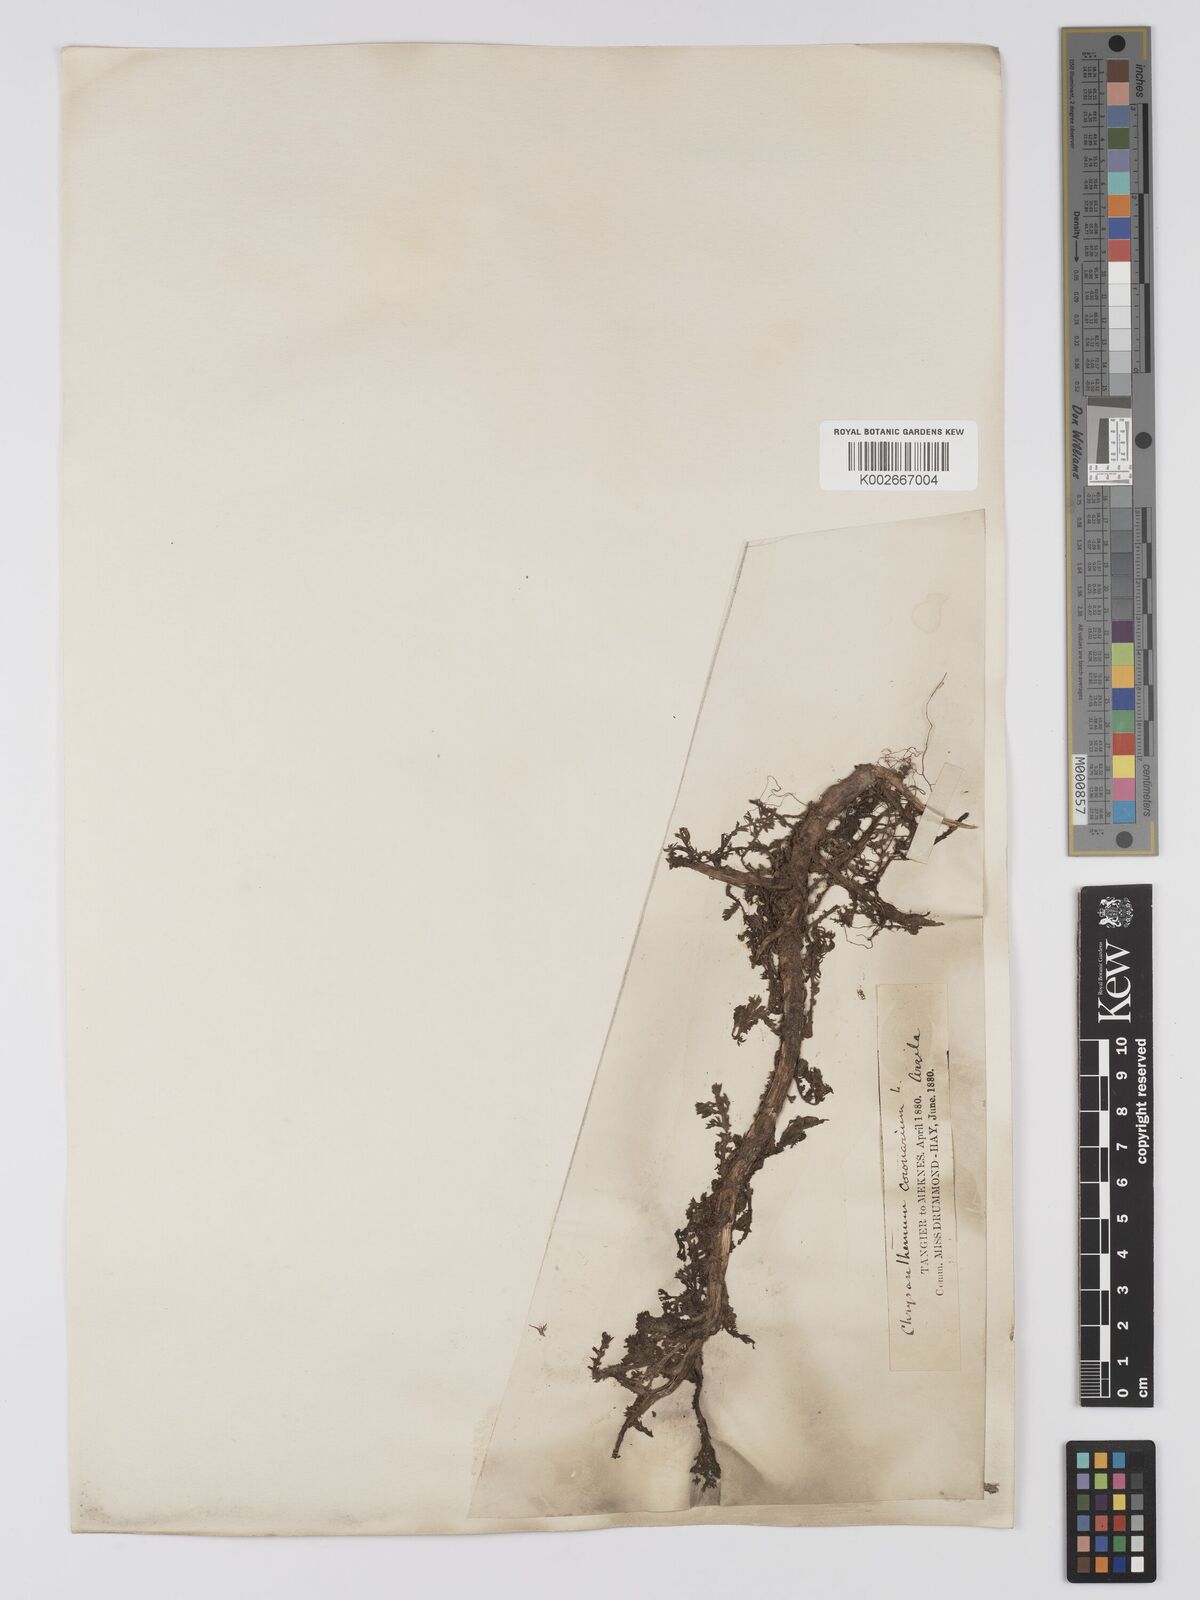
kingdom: Plantae
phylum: Tracheophyta
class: Magnoliopsida
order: Asterales
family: Asteraceae
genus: Glebionis
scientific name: Glebionis coronaria
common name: Crowndaisy
